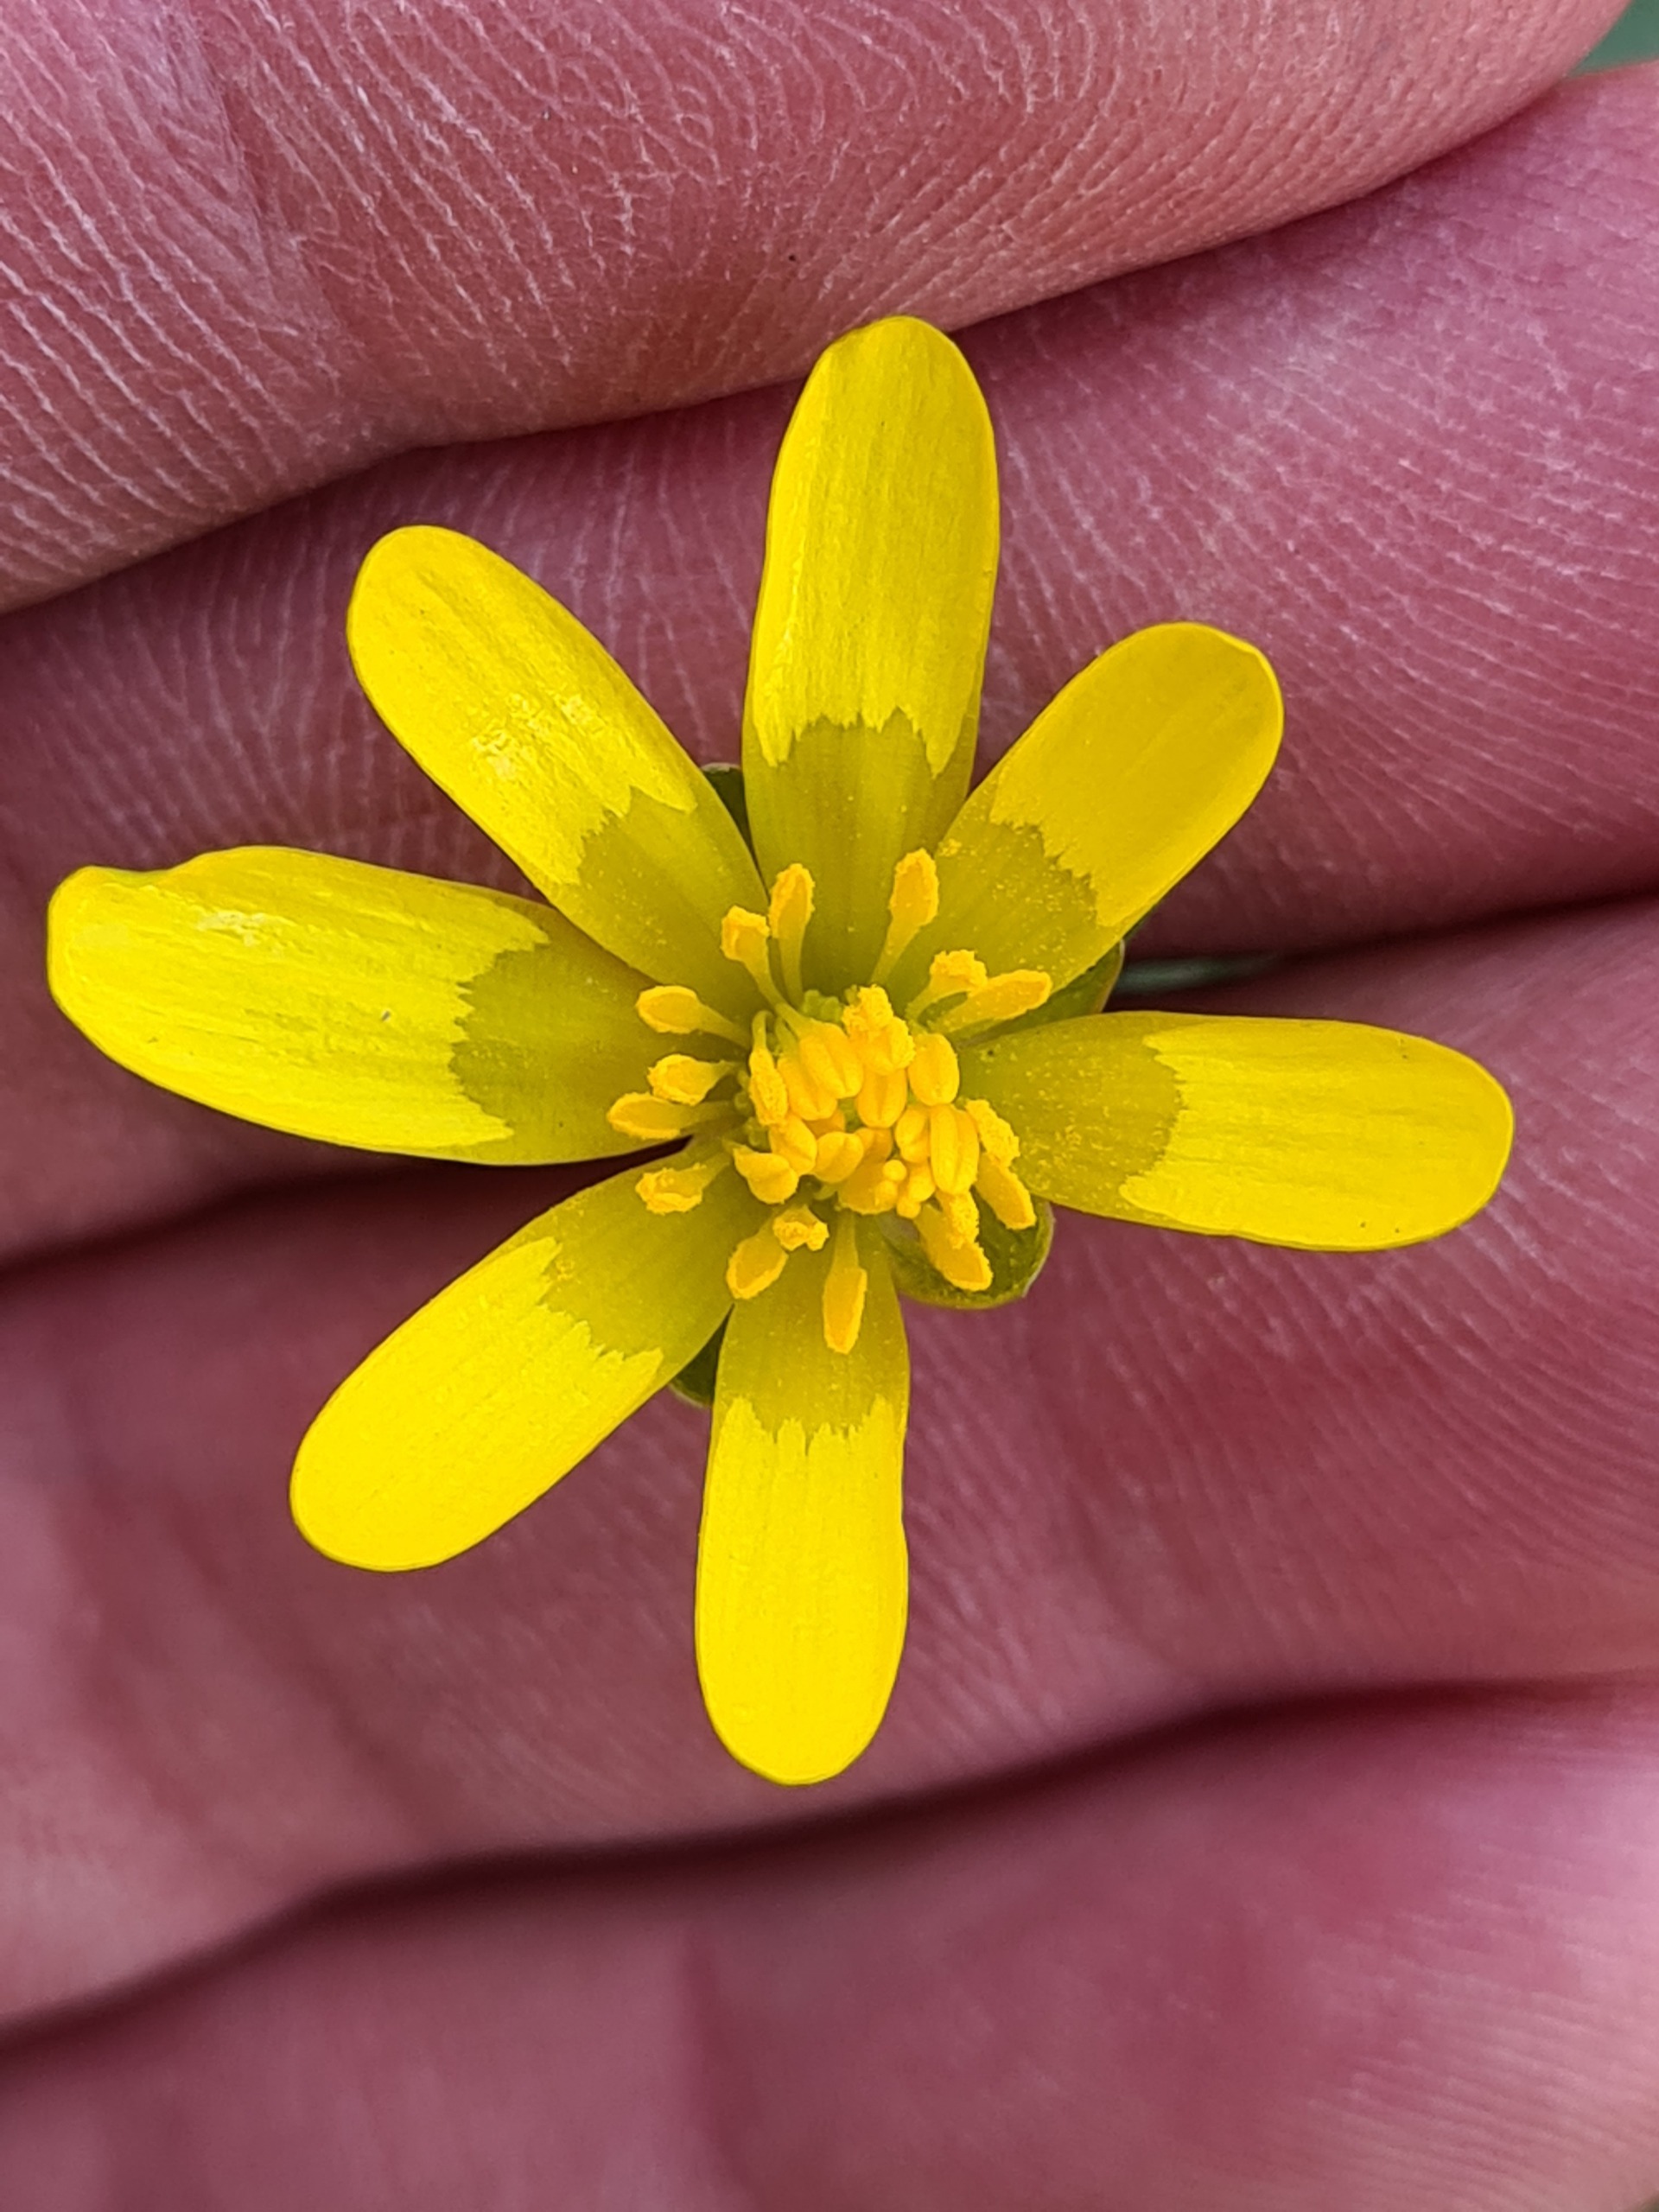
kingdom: Plantae
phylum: Tracheophyta
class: Magnoliopsida
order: Ranunculales
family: Ranunculaceae
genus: Ficaria
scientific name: Ficaria verna
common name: Vorterod
